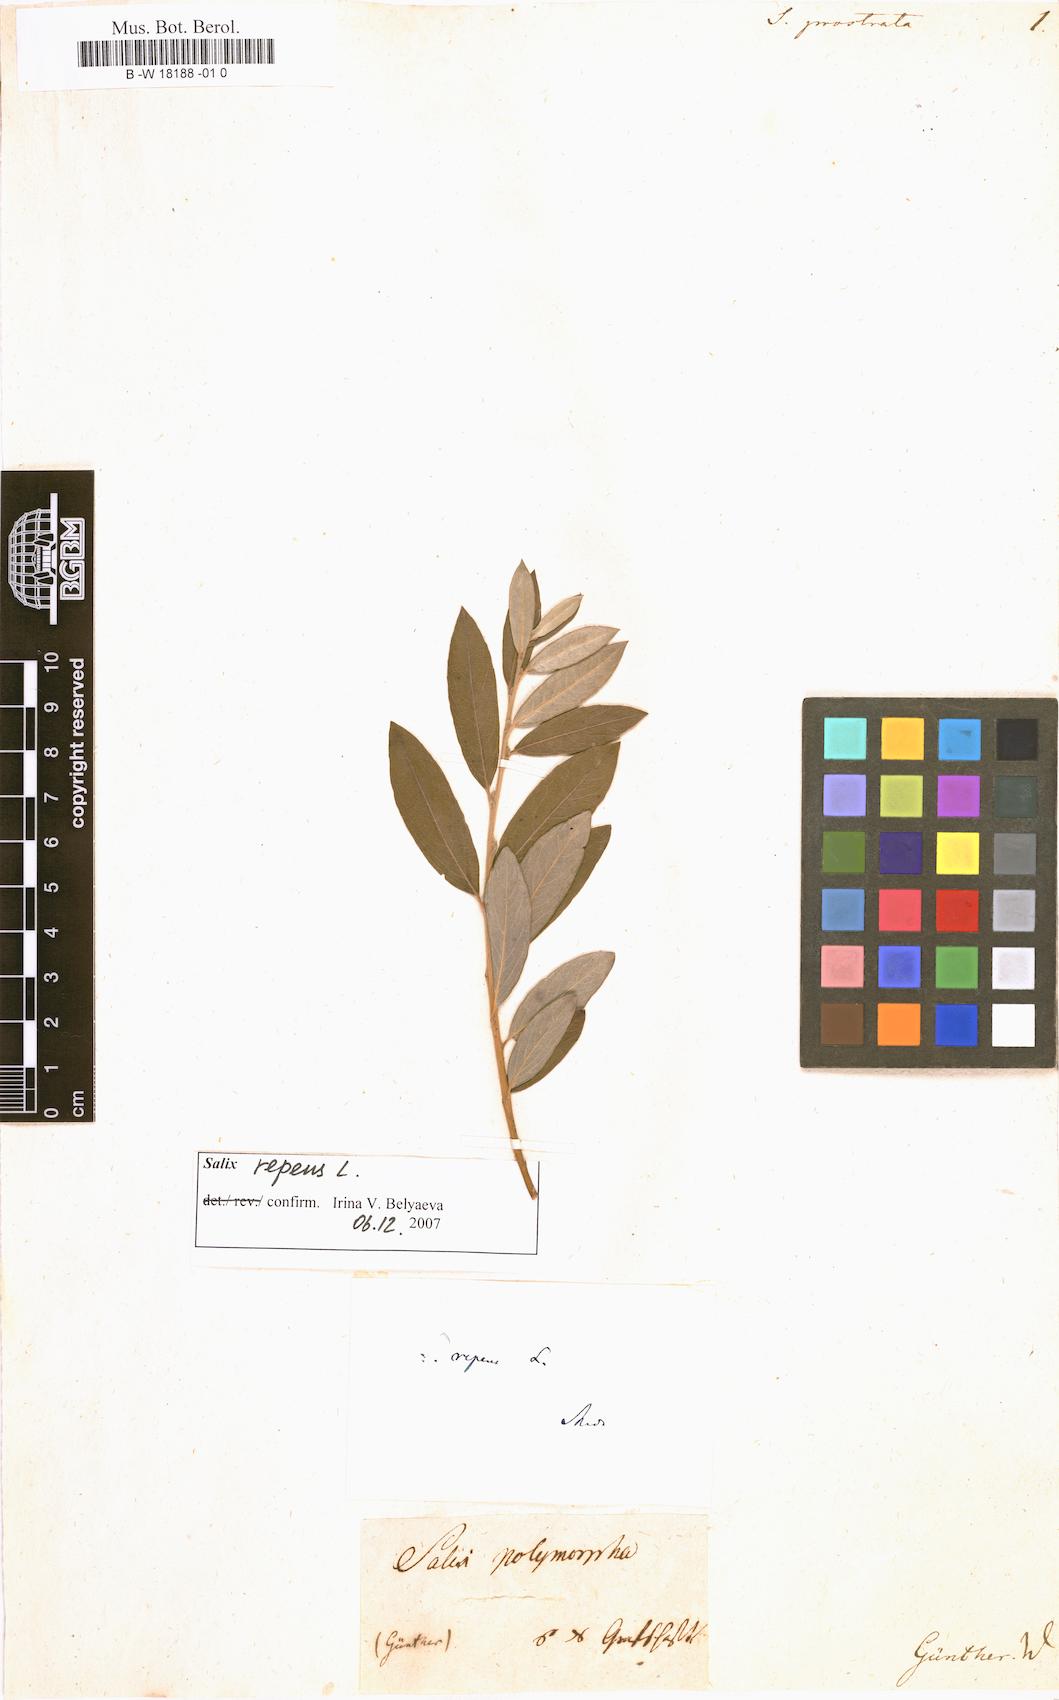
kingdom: Plantae
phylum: Tracheophyta
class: Magnoliopsida
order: Malpighiales
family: Salicaceae
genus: Salix
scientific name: Salix
